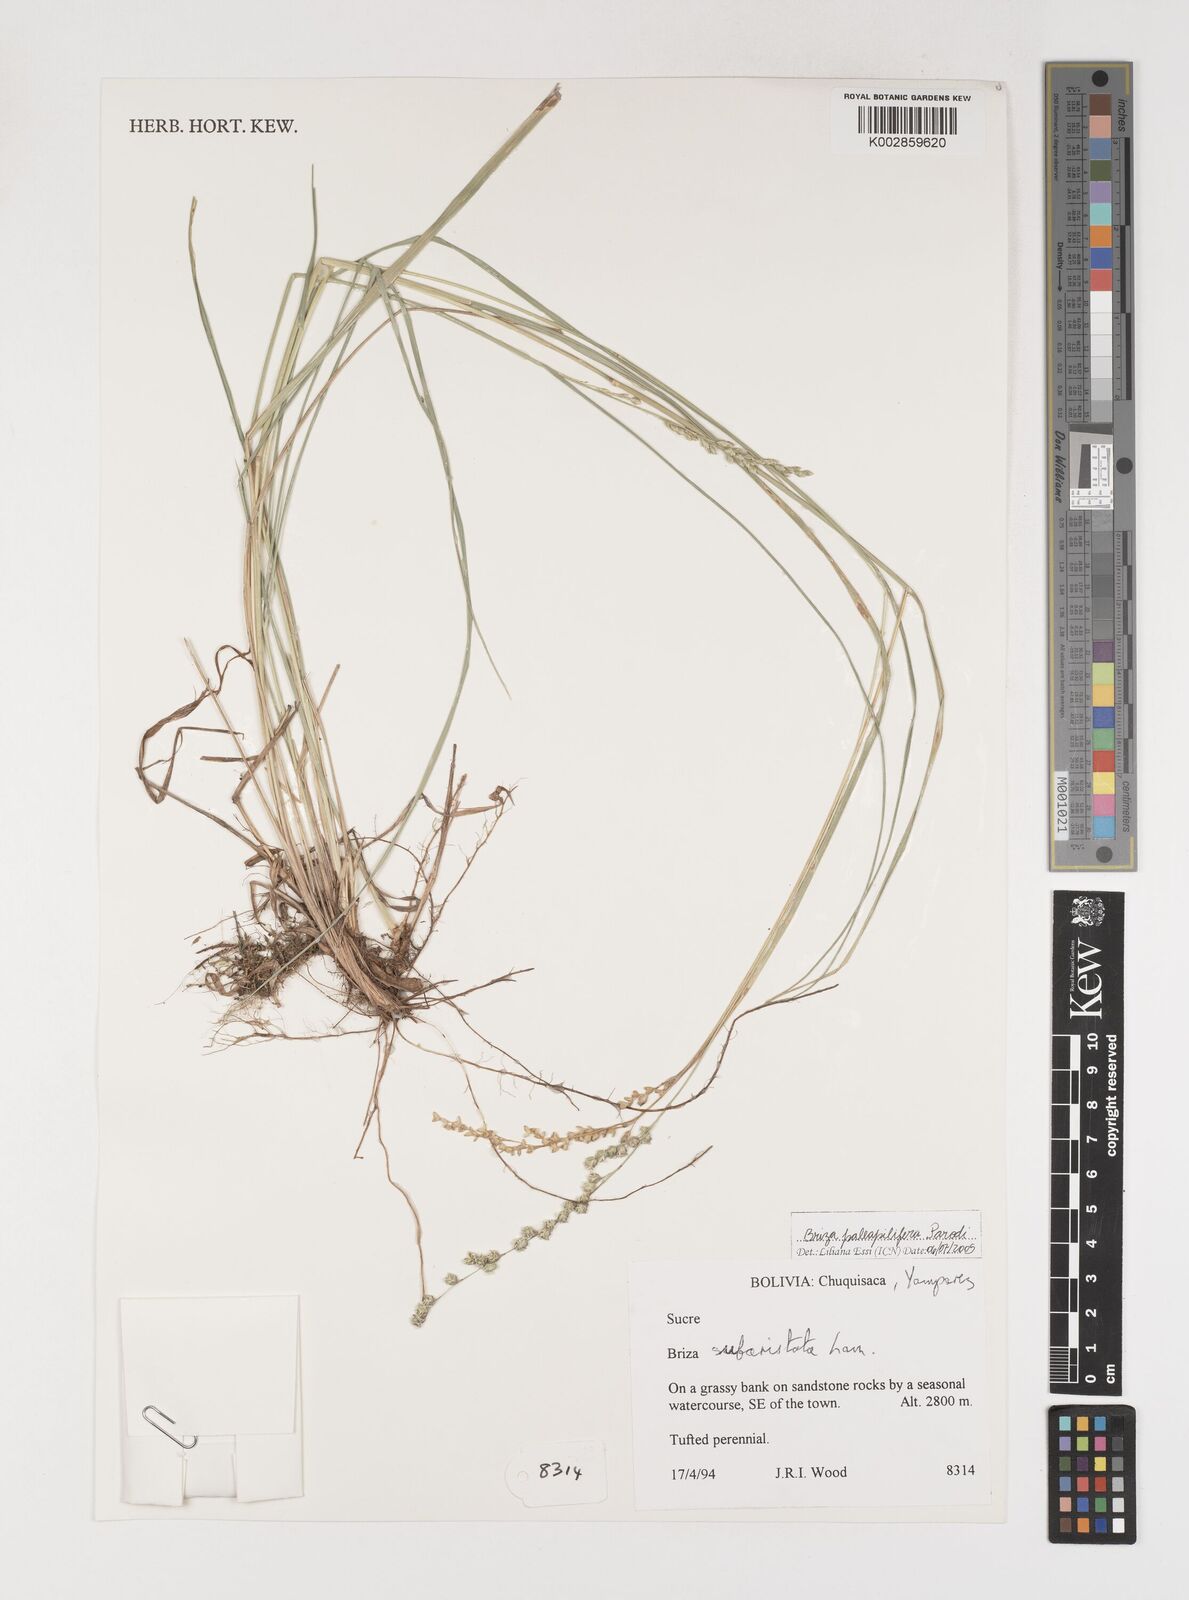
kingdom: Plantae
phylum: Tracheophyta
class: Liliopsida
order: Poales
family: Poaceae
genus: Chascolytrum
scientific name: Chascolytrum paleapiliferum
